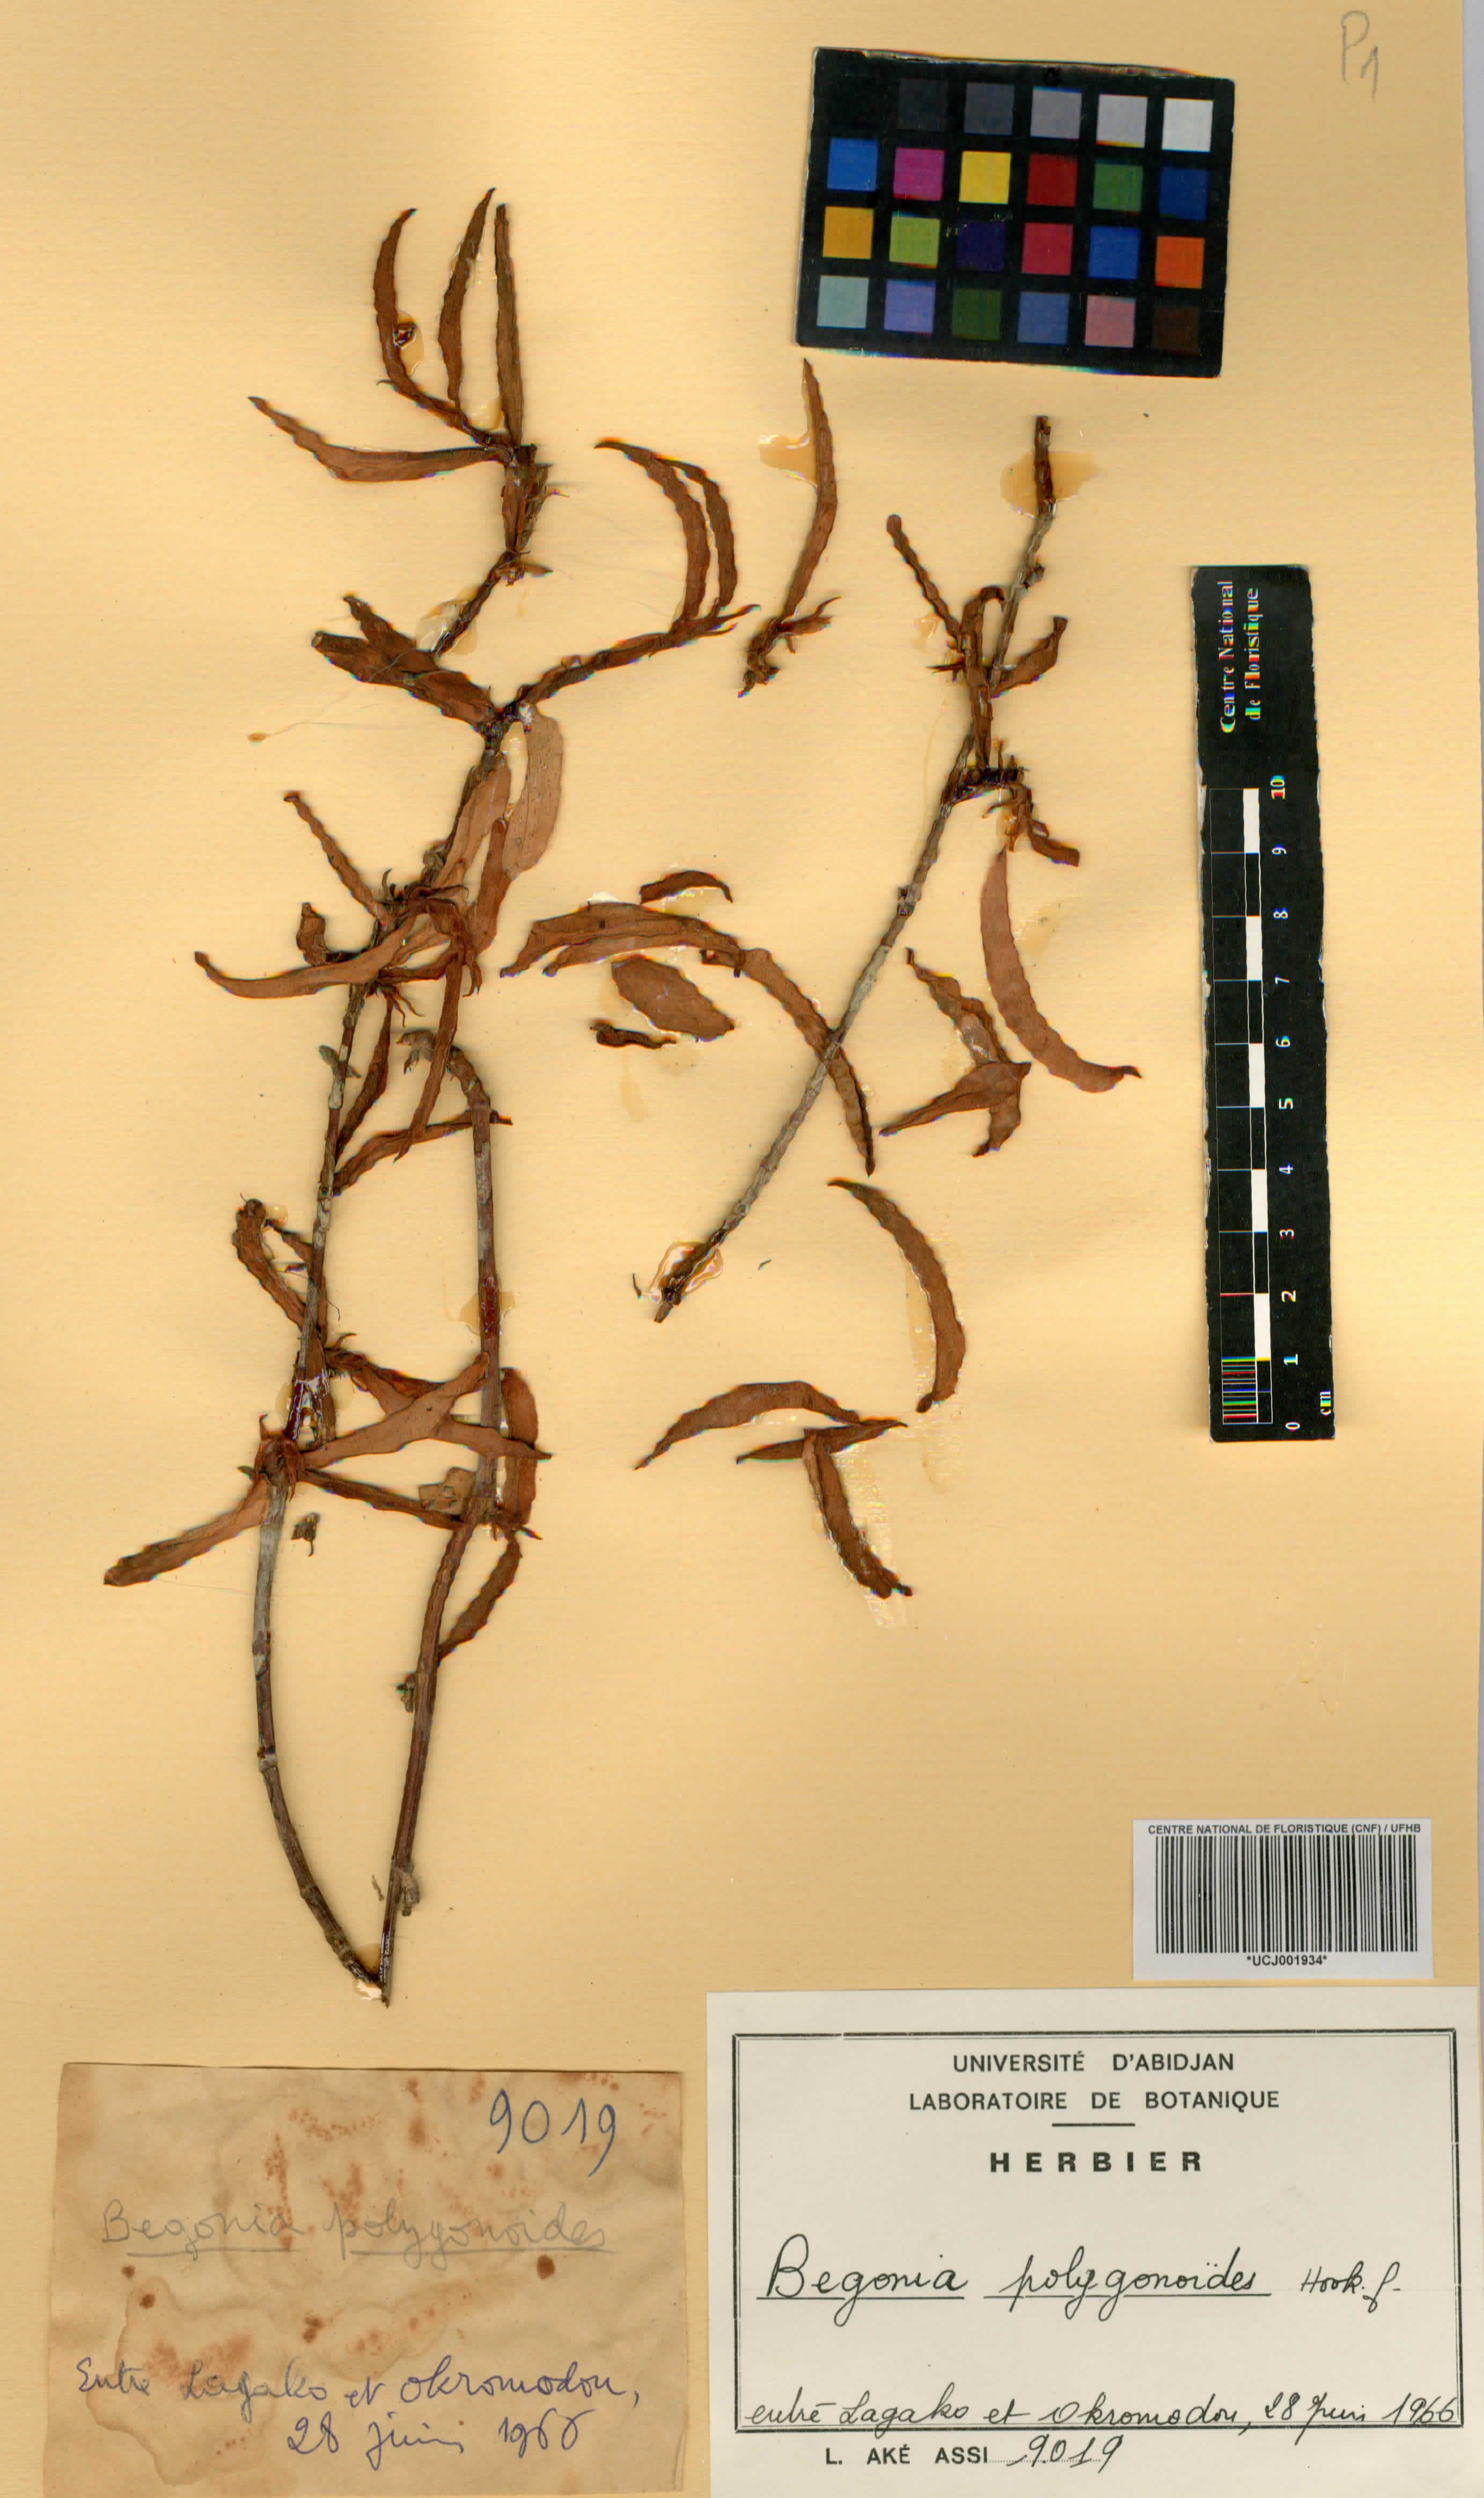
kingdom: Plantae
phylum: Tracheophyta
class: Magnoliopsida
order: Cucurbitales
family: Begoniaceae
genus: Begonia
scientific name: Begonia polygonoides
